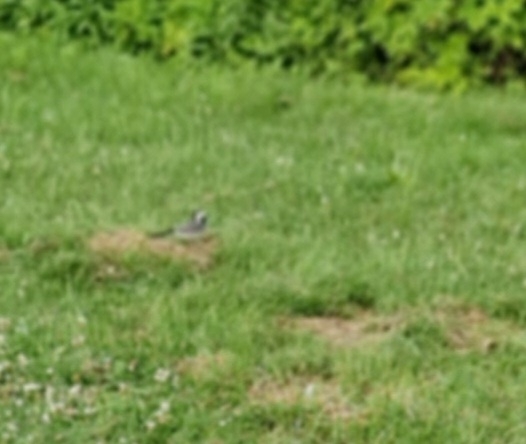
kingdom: Animalia
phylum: Chordata
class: Aves
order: Passeriformes
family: Motacillidae
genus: Motacilla
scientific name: Motacilla alba
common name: Hvid vipstjert
